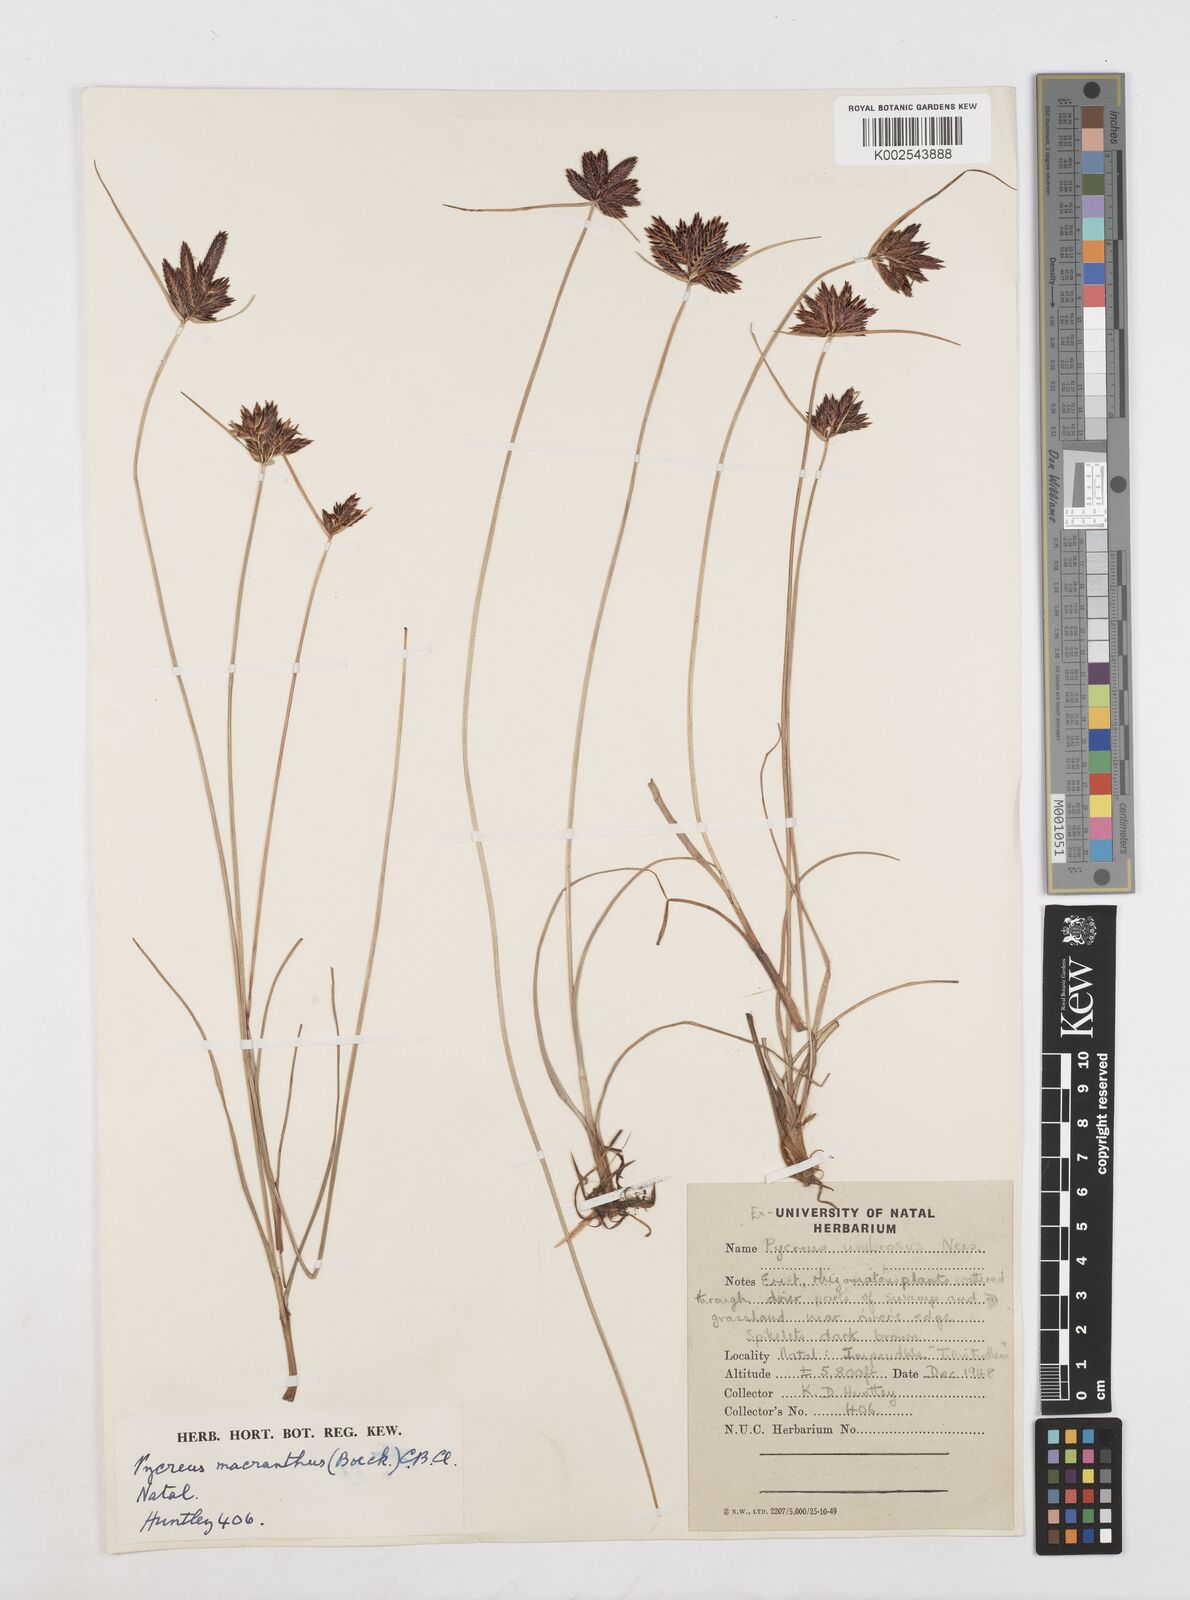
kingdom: Plantae
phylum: Tracheophyta
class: Liliopsida
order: Poales
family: Cyperaceae
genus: Cyperus
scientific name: Cyperus nigricans
